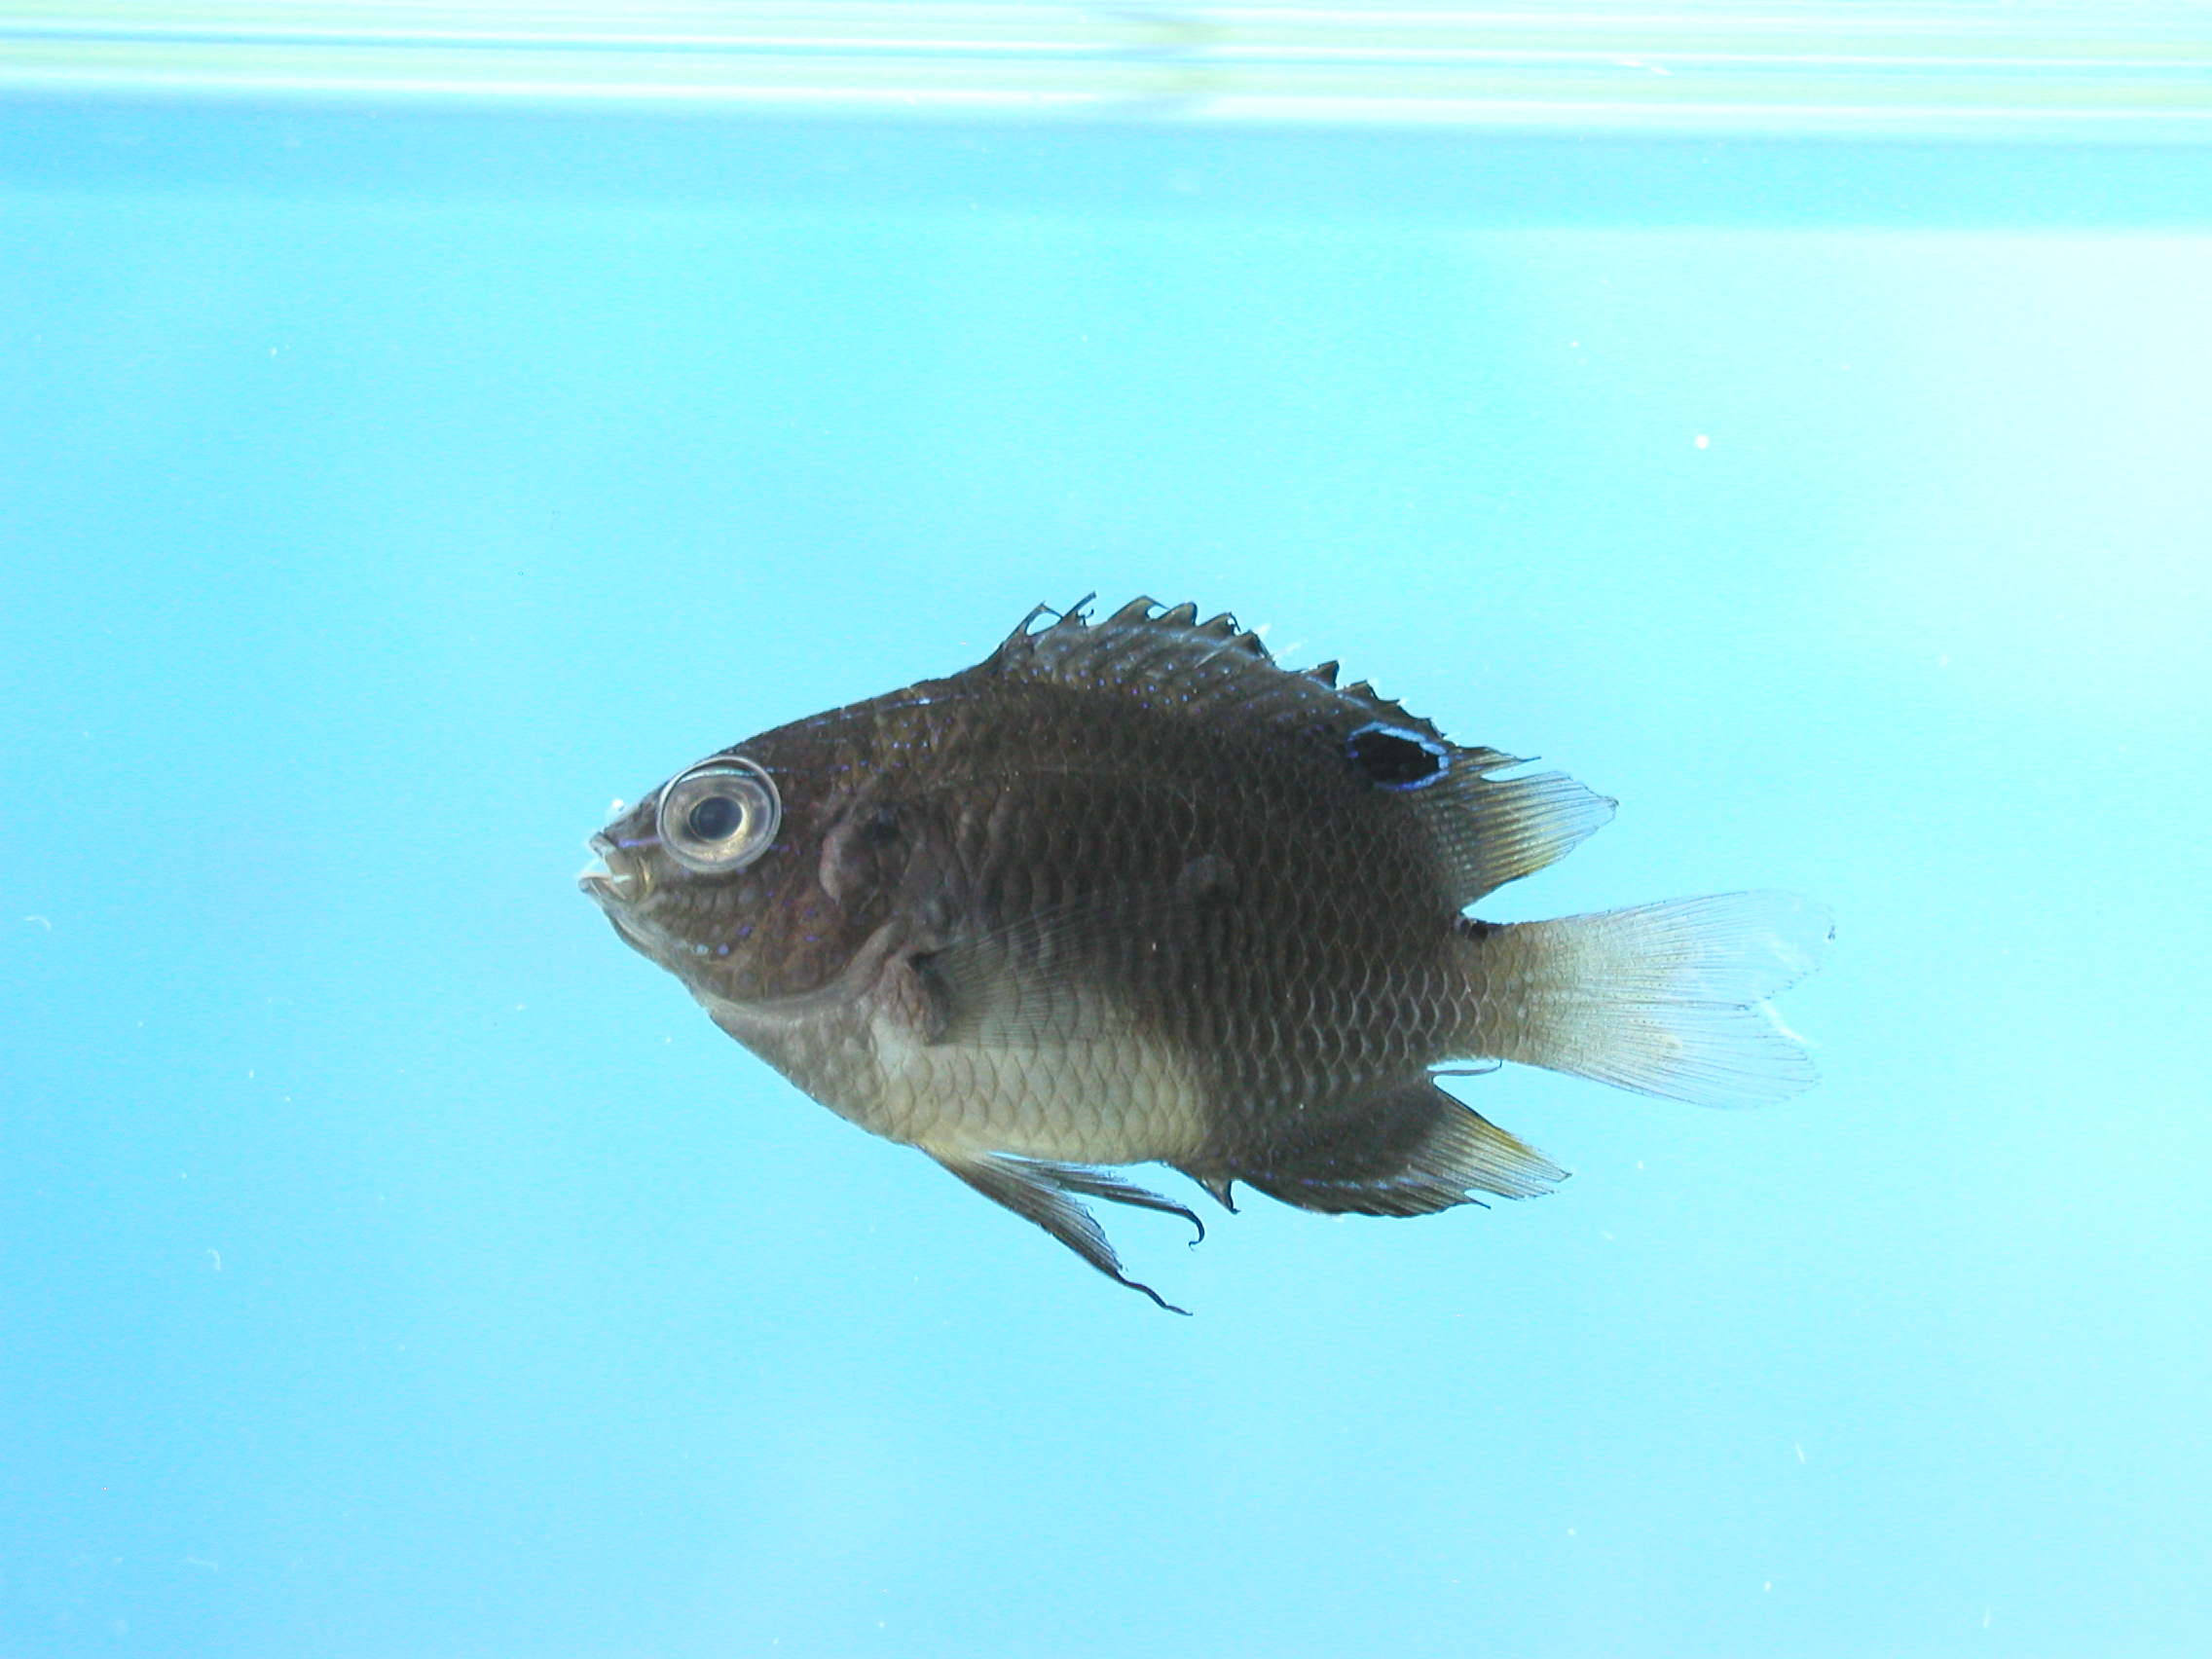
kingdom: Animalia
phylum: Chordata
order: Perciformes
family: Pomacentridae
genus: Pomacentrus
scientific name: Pomacentrus agassizii
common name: Creole damsel
